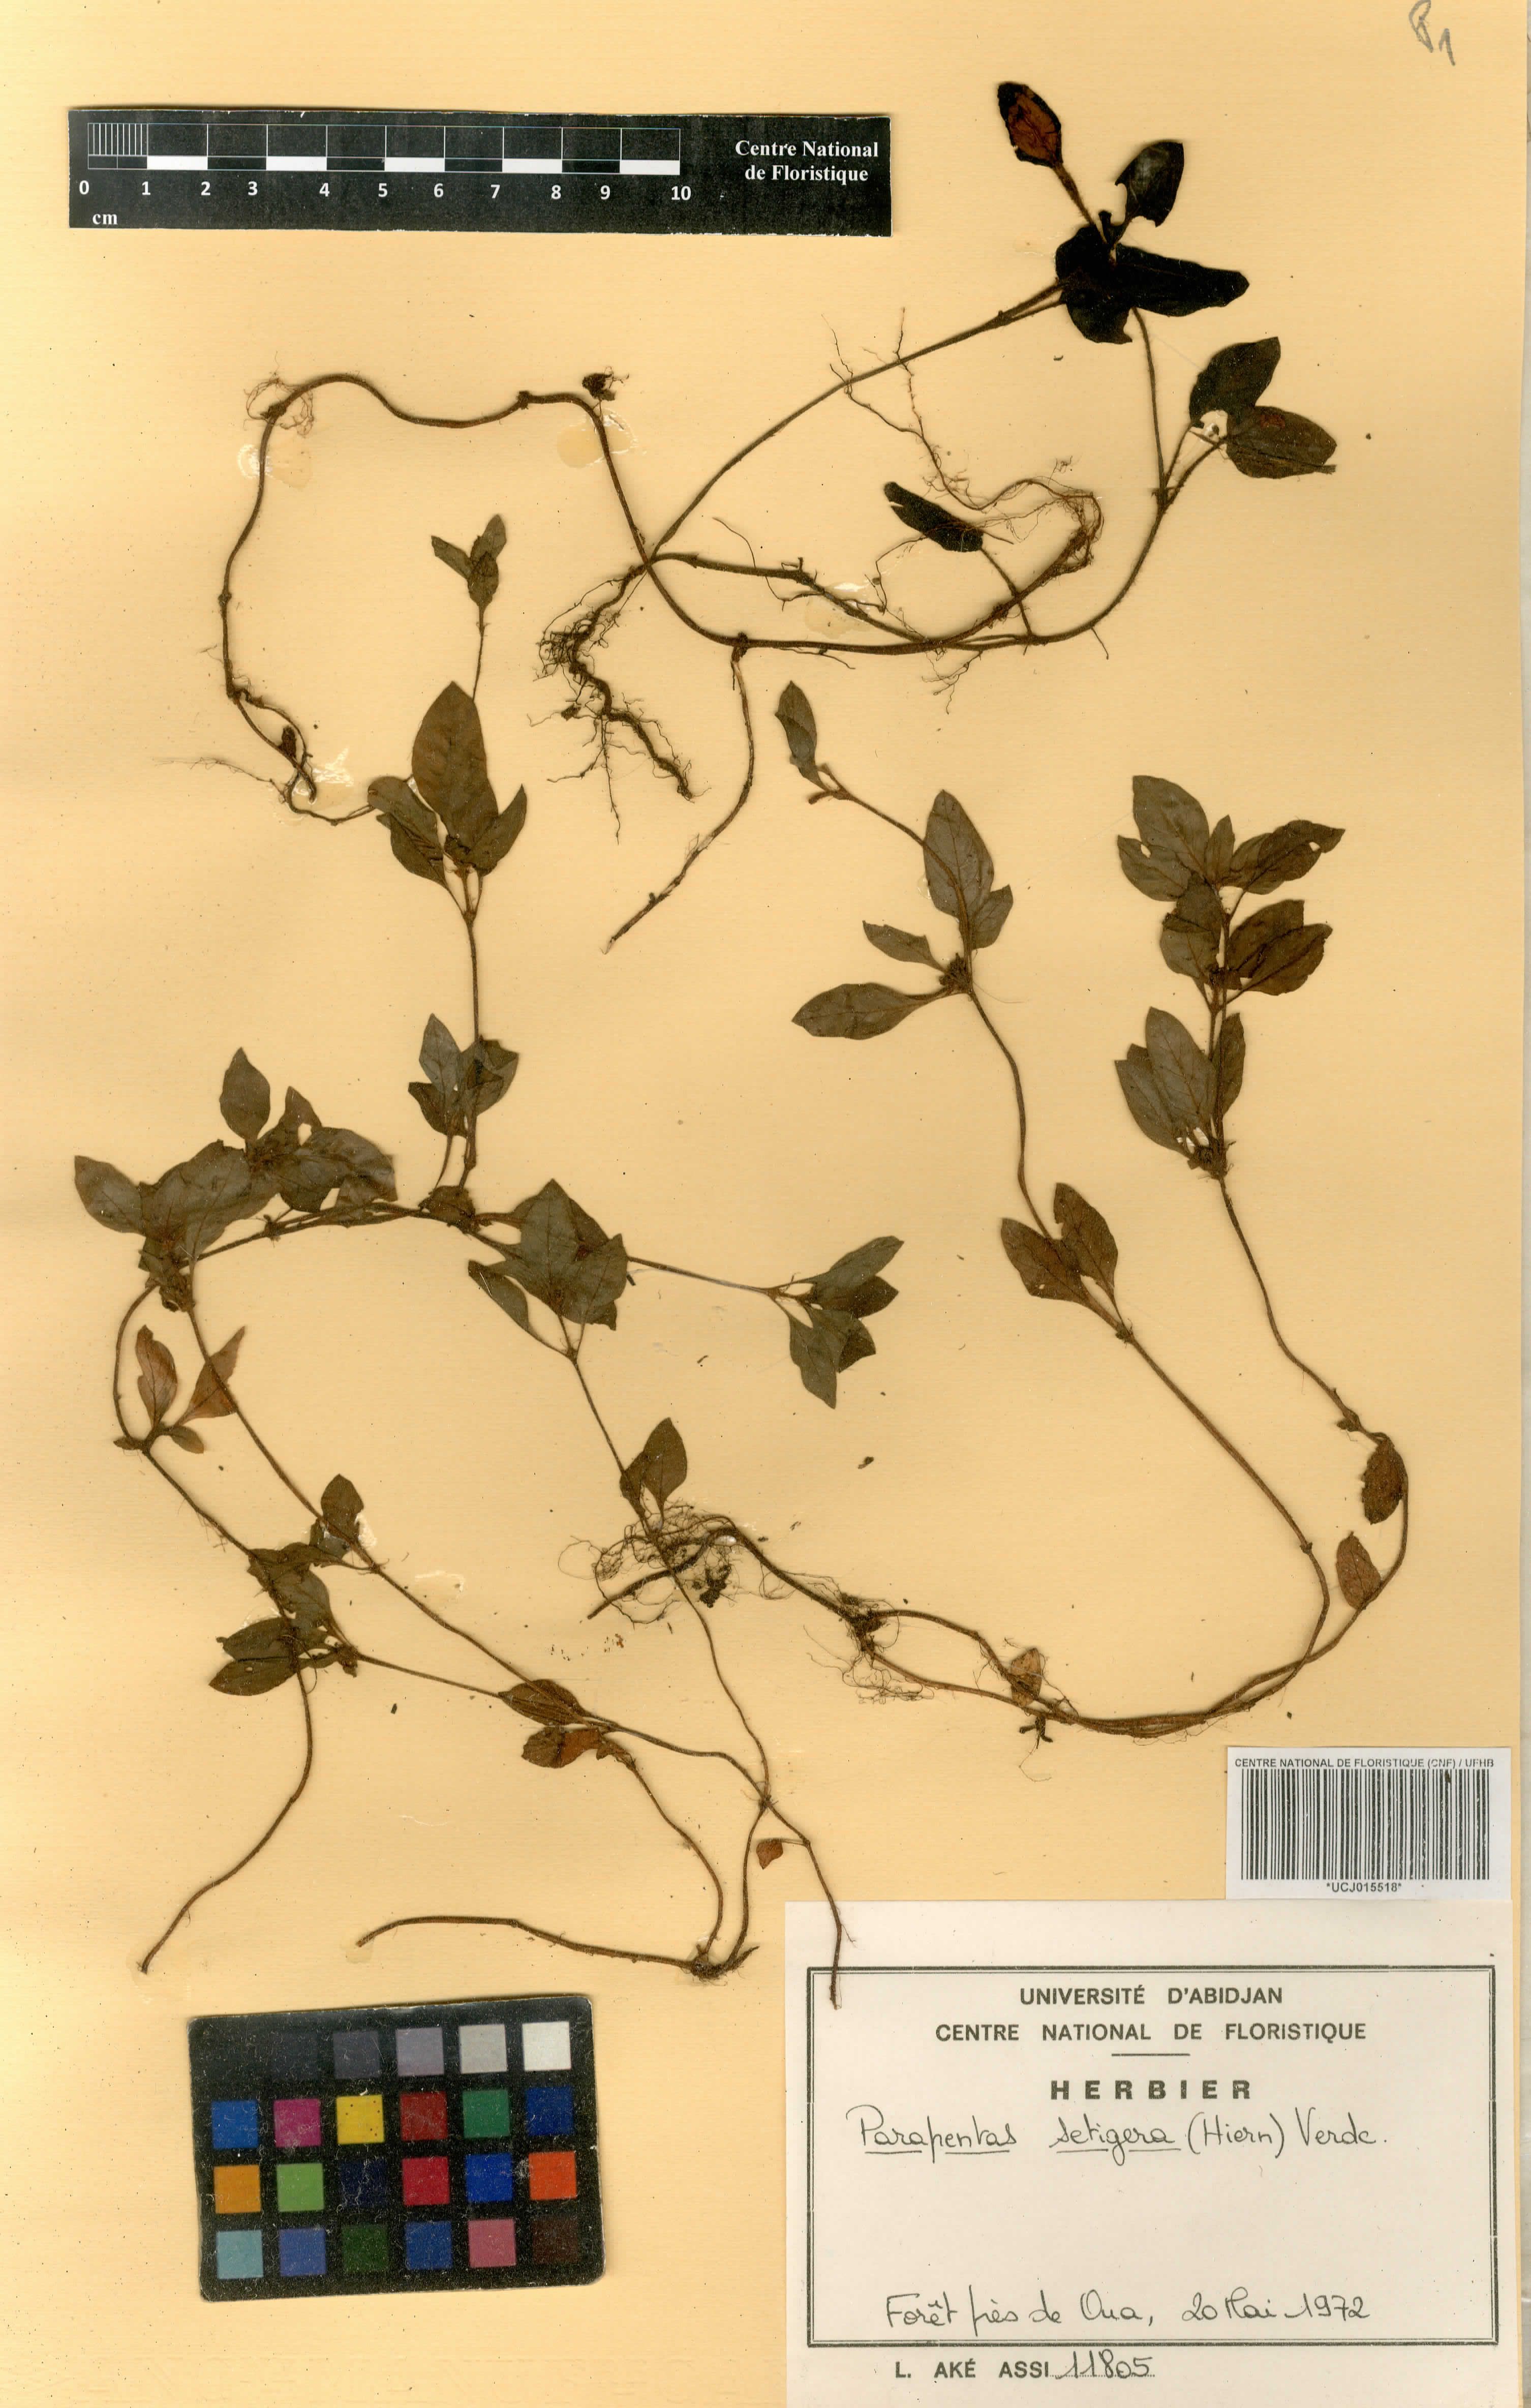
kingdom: Plantae
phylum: Tracheophyta
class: Magnoliopsida
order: Gentianales
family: Rubiaceae
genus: Parapentas
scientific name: Parapentas setigera
